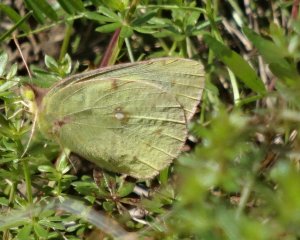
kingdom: Animalia
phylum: Arthropoda
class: Insecta
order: Lepidoptera
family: Pieridae
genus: Colias
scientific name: Colias philodice
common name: Clouded Sulphur
